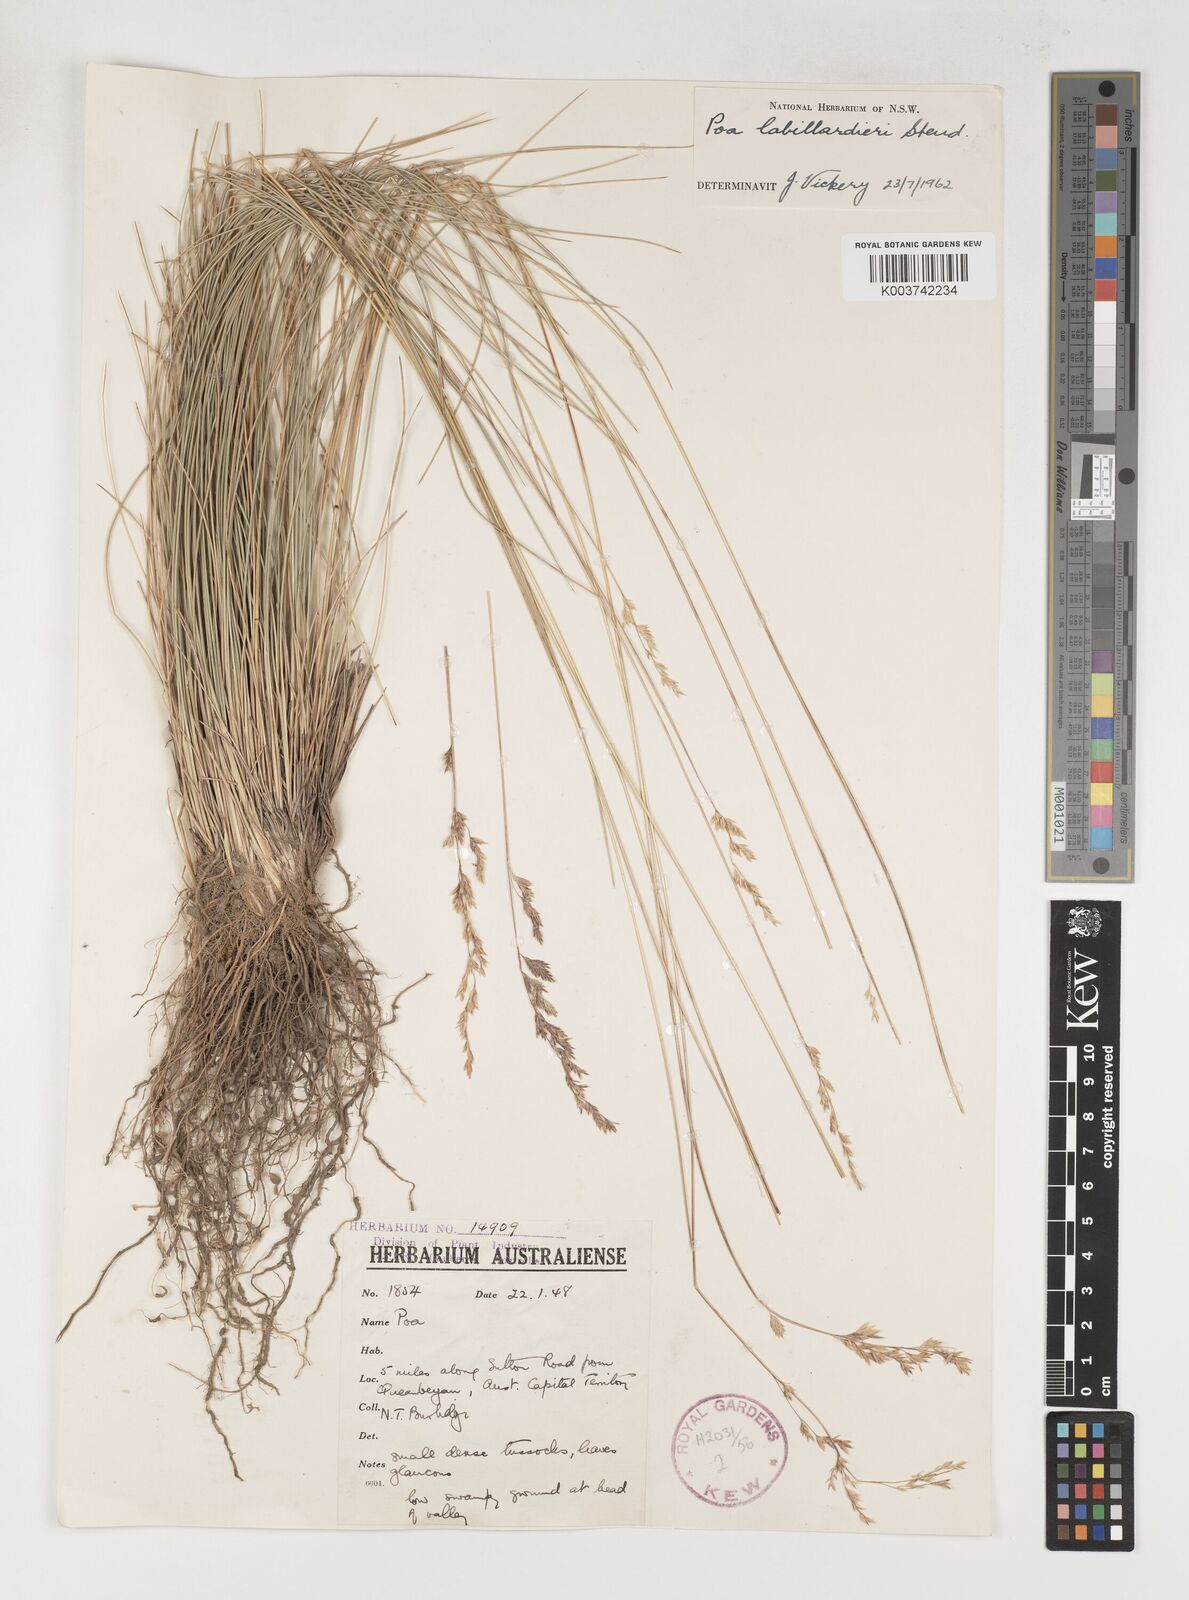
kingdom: Plantae
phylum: Tracheophyta
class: Liliopsida
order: Poales
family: Poaceae
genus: Poa
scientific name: Poa labillardierei
